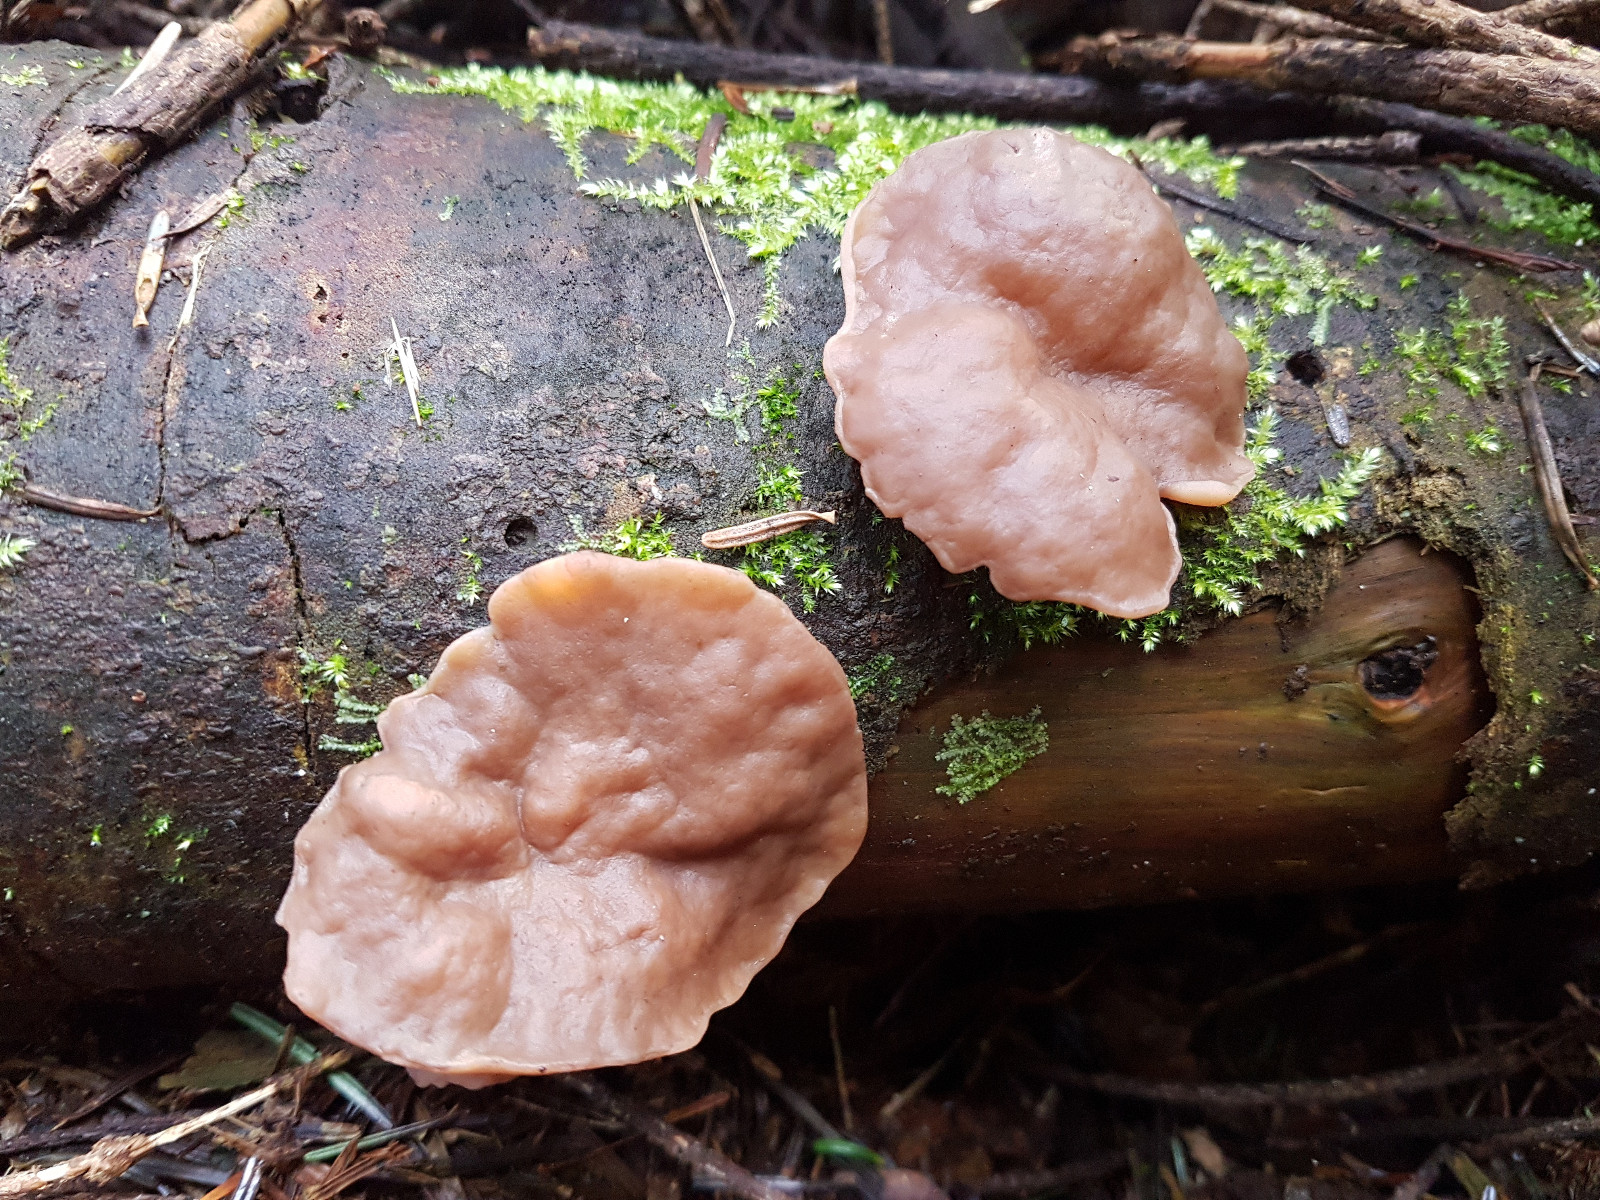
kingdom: Fungi
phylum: Ascomycota
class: Pezizomycetes
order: Pezizales
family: Discinaceae
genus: Discina
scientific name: Discina ancilis
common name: udbredt stenmorkel
